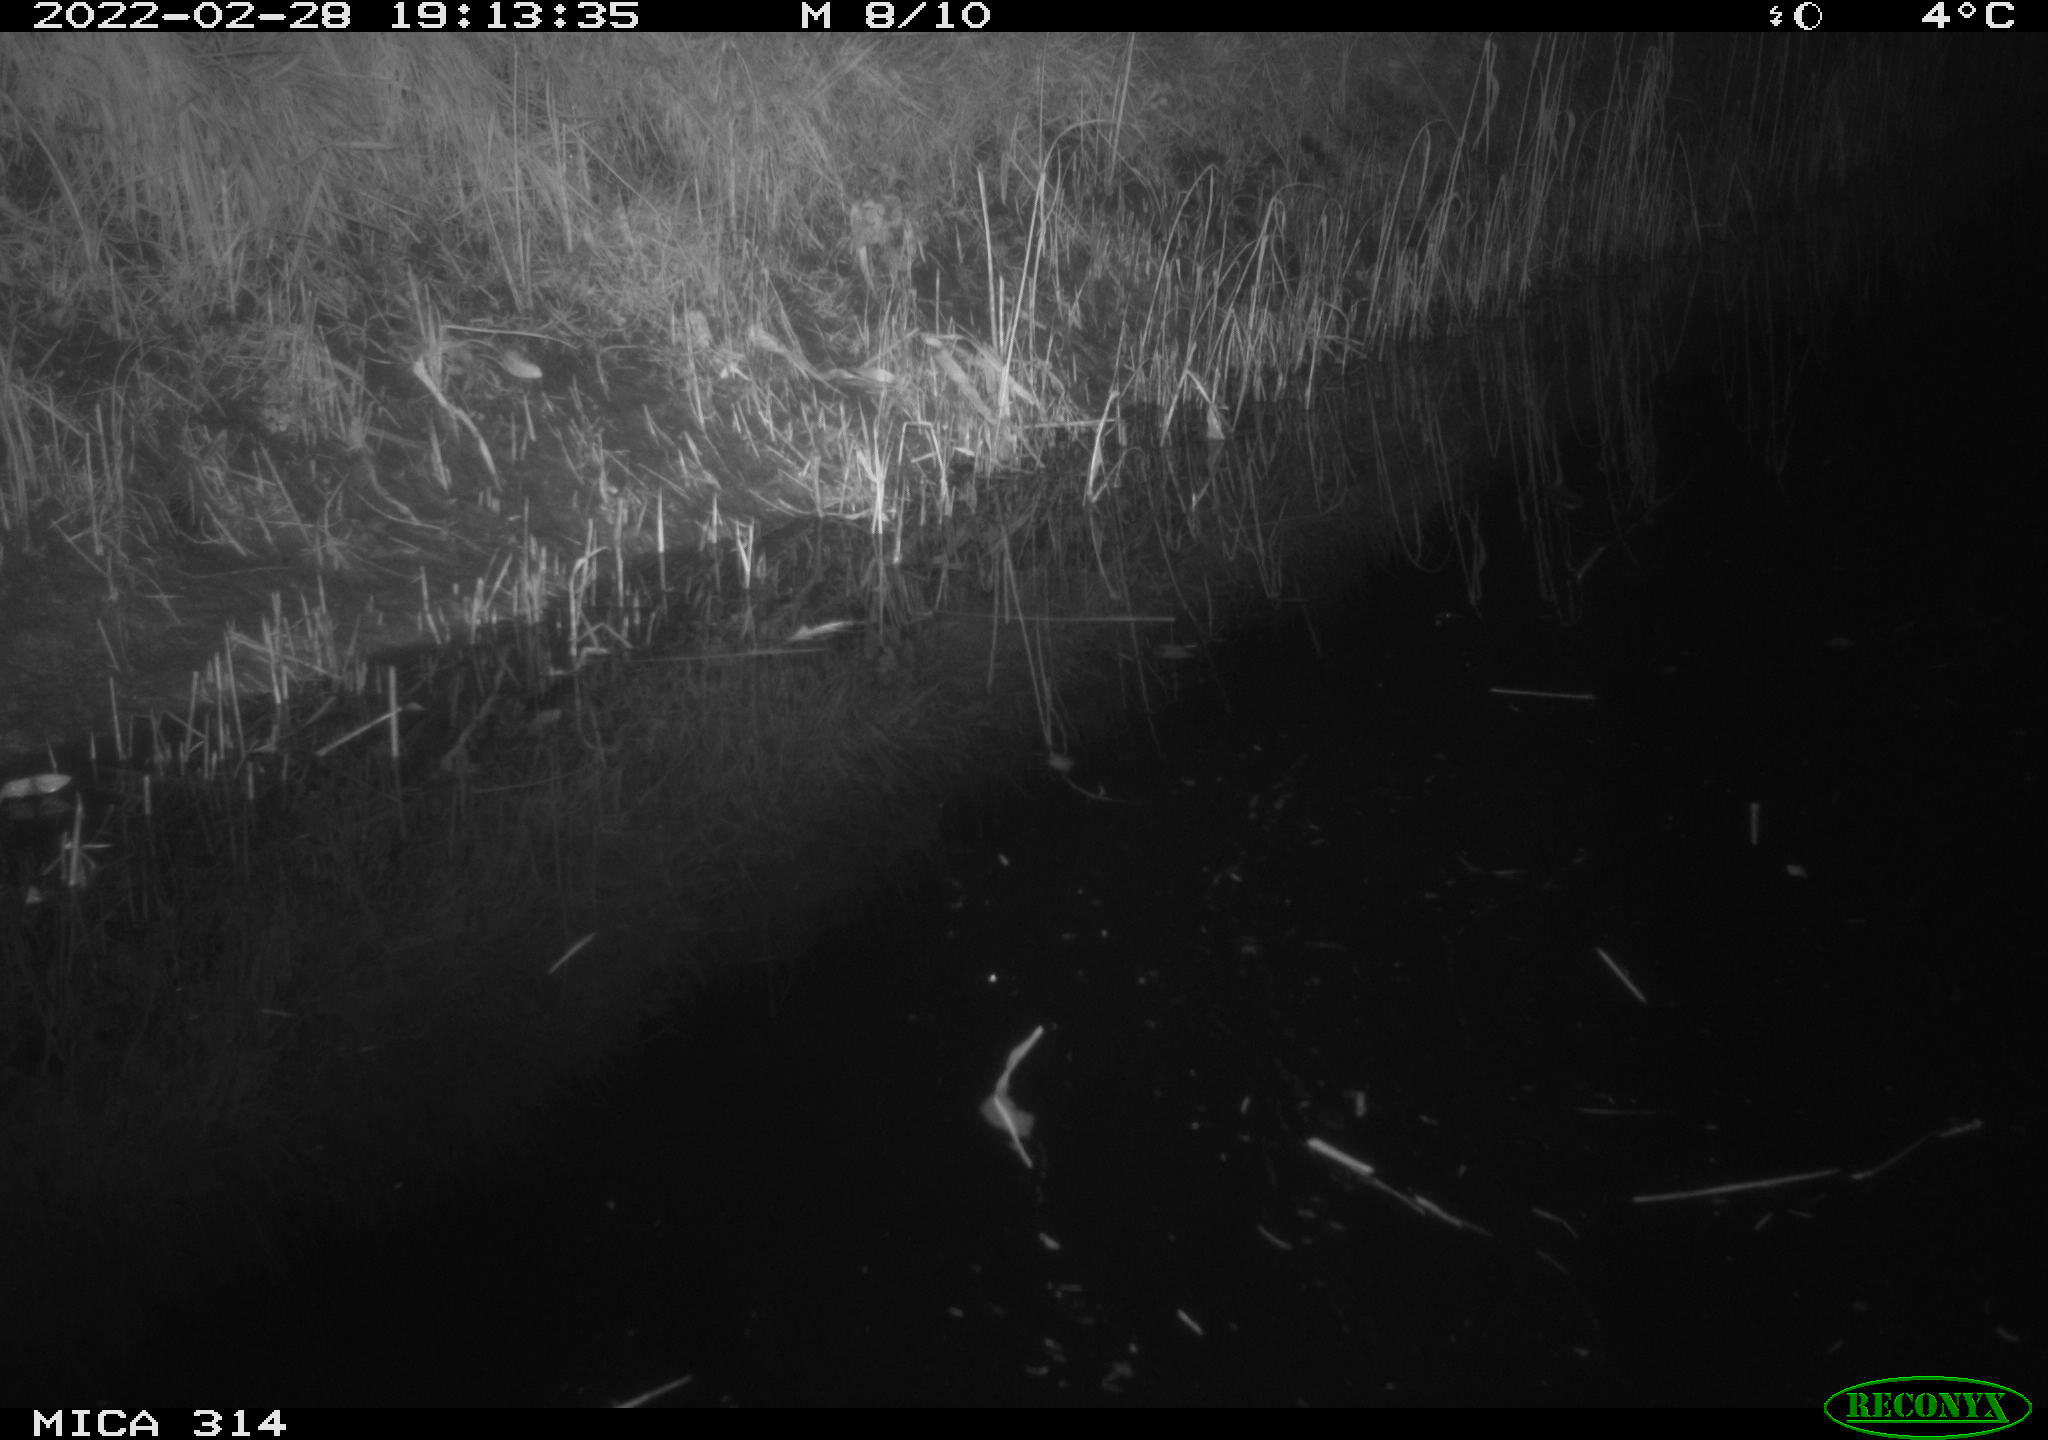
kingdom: Animalia
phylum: Chordata
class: Mammalia
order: Rodentia
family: Muridae
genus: Rattus
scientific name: Rattus norvegicus
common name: Brown rat
